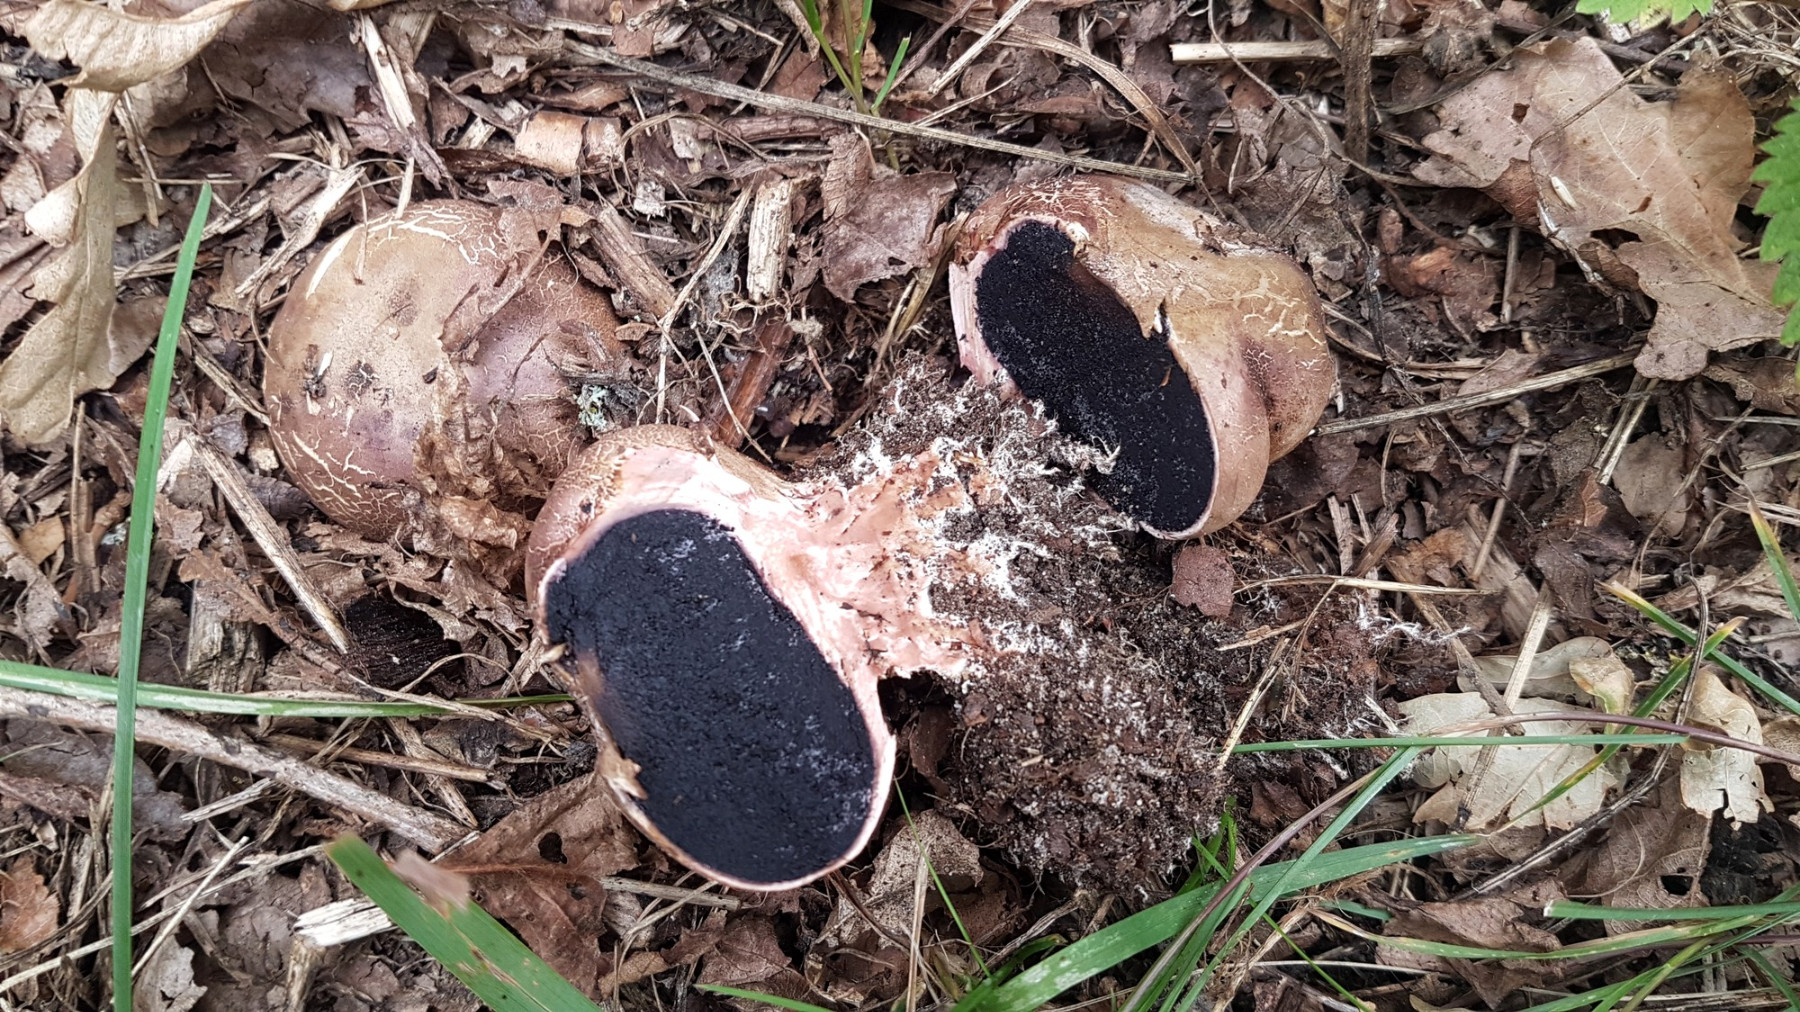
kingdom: Fungi
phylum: Basidiomycota
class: Agaricomycetes
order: Boletales
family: Sclerodermataceae
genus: Scleroderma
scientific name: Scleroderma verrucosum
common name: stilket bruskbold
